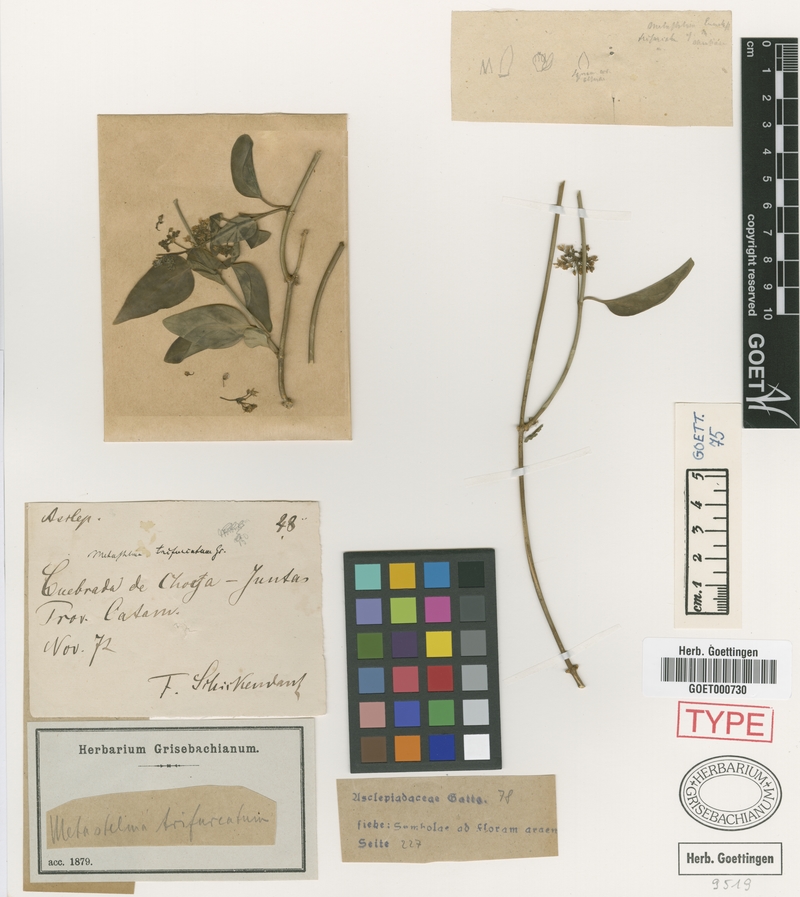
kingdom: Plantae
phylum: Tracheophyta
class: Magnoliopsida
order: Gentianales
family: Apocynaceae
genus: Jobinia
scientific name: Jobinia trifurcata
